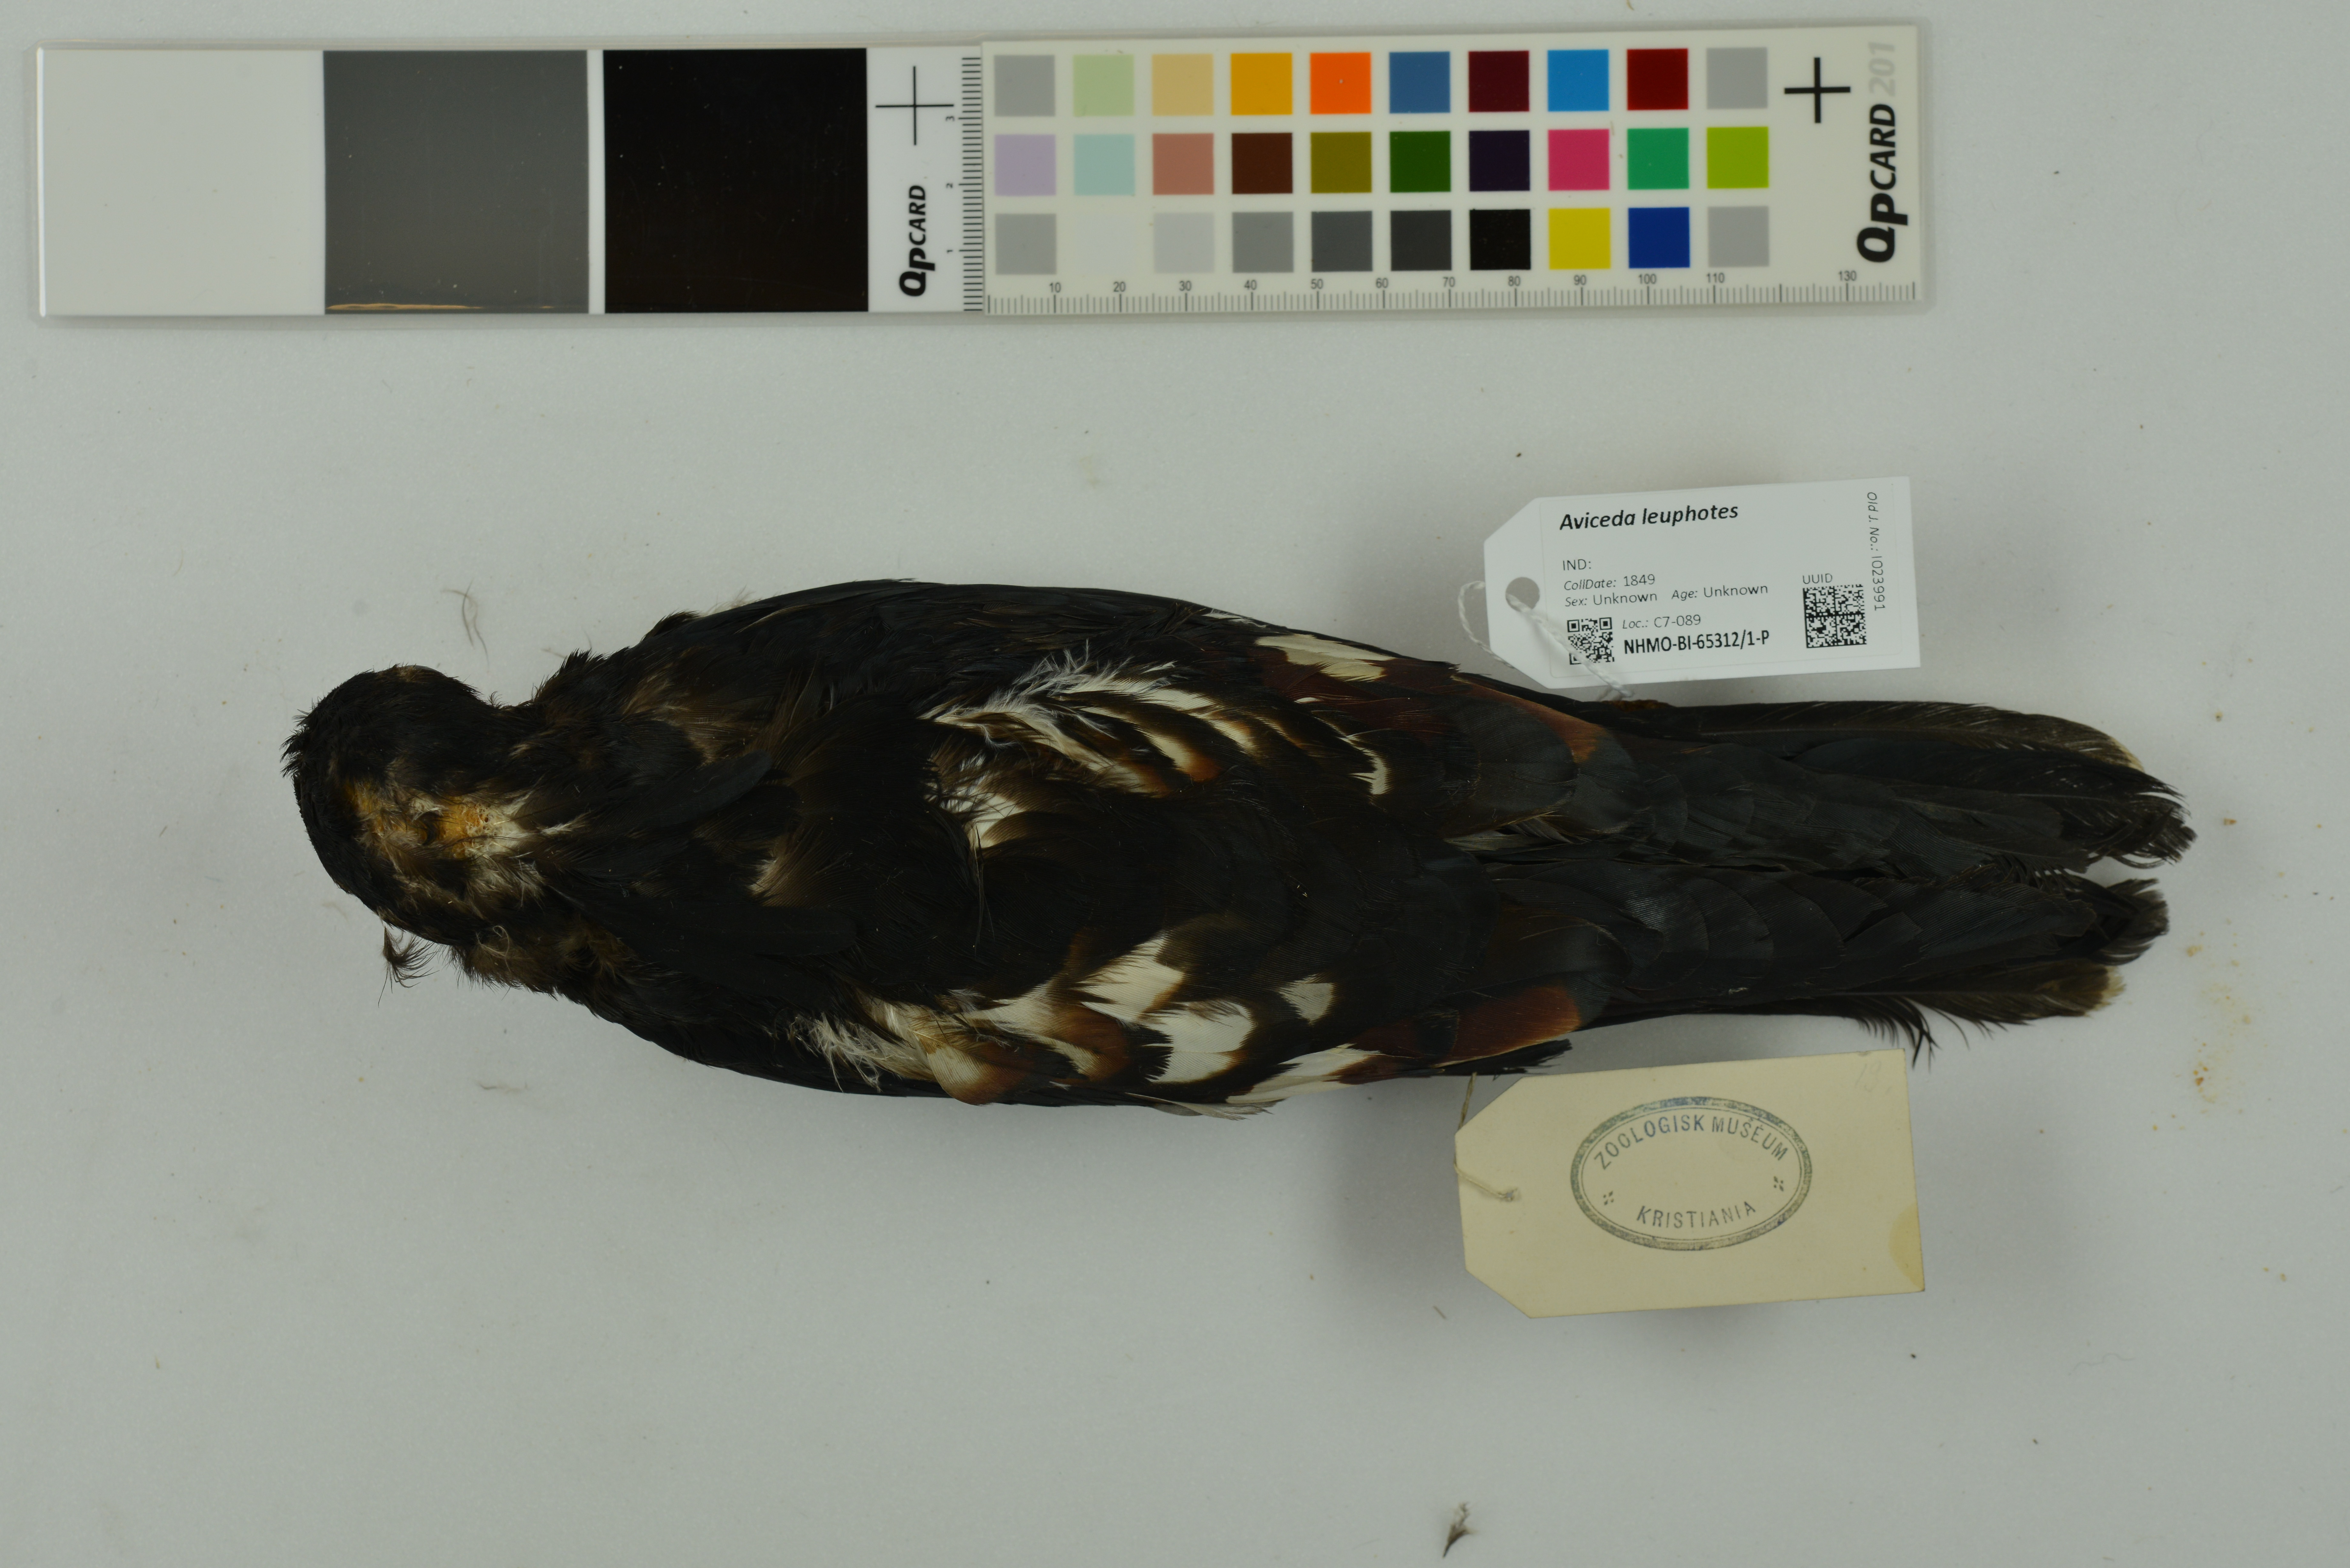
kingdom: Animalia
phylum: Chordata
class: Aves
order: Accipitriformes
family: Accipitridae
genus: Aviceda
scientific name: Aviceda leuphotes
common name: Black baza
